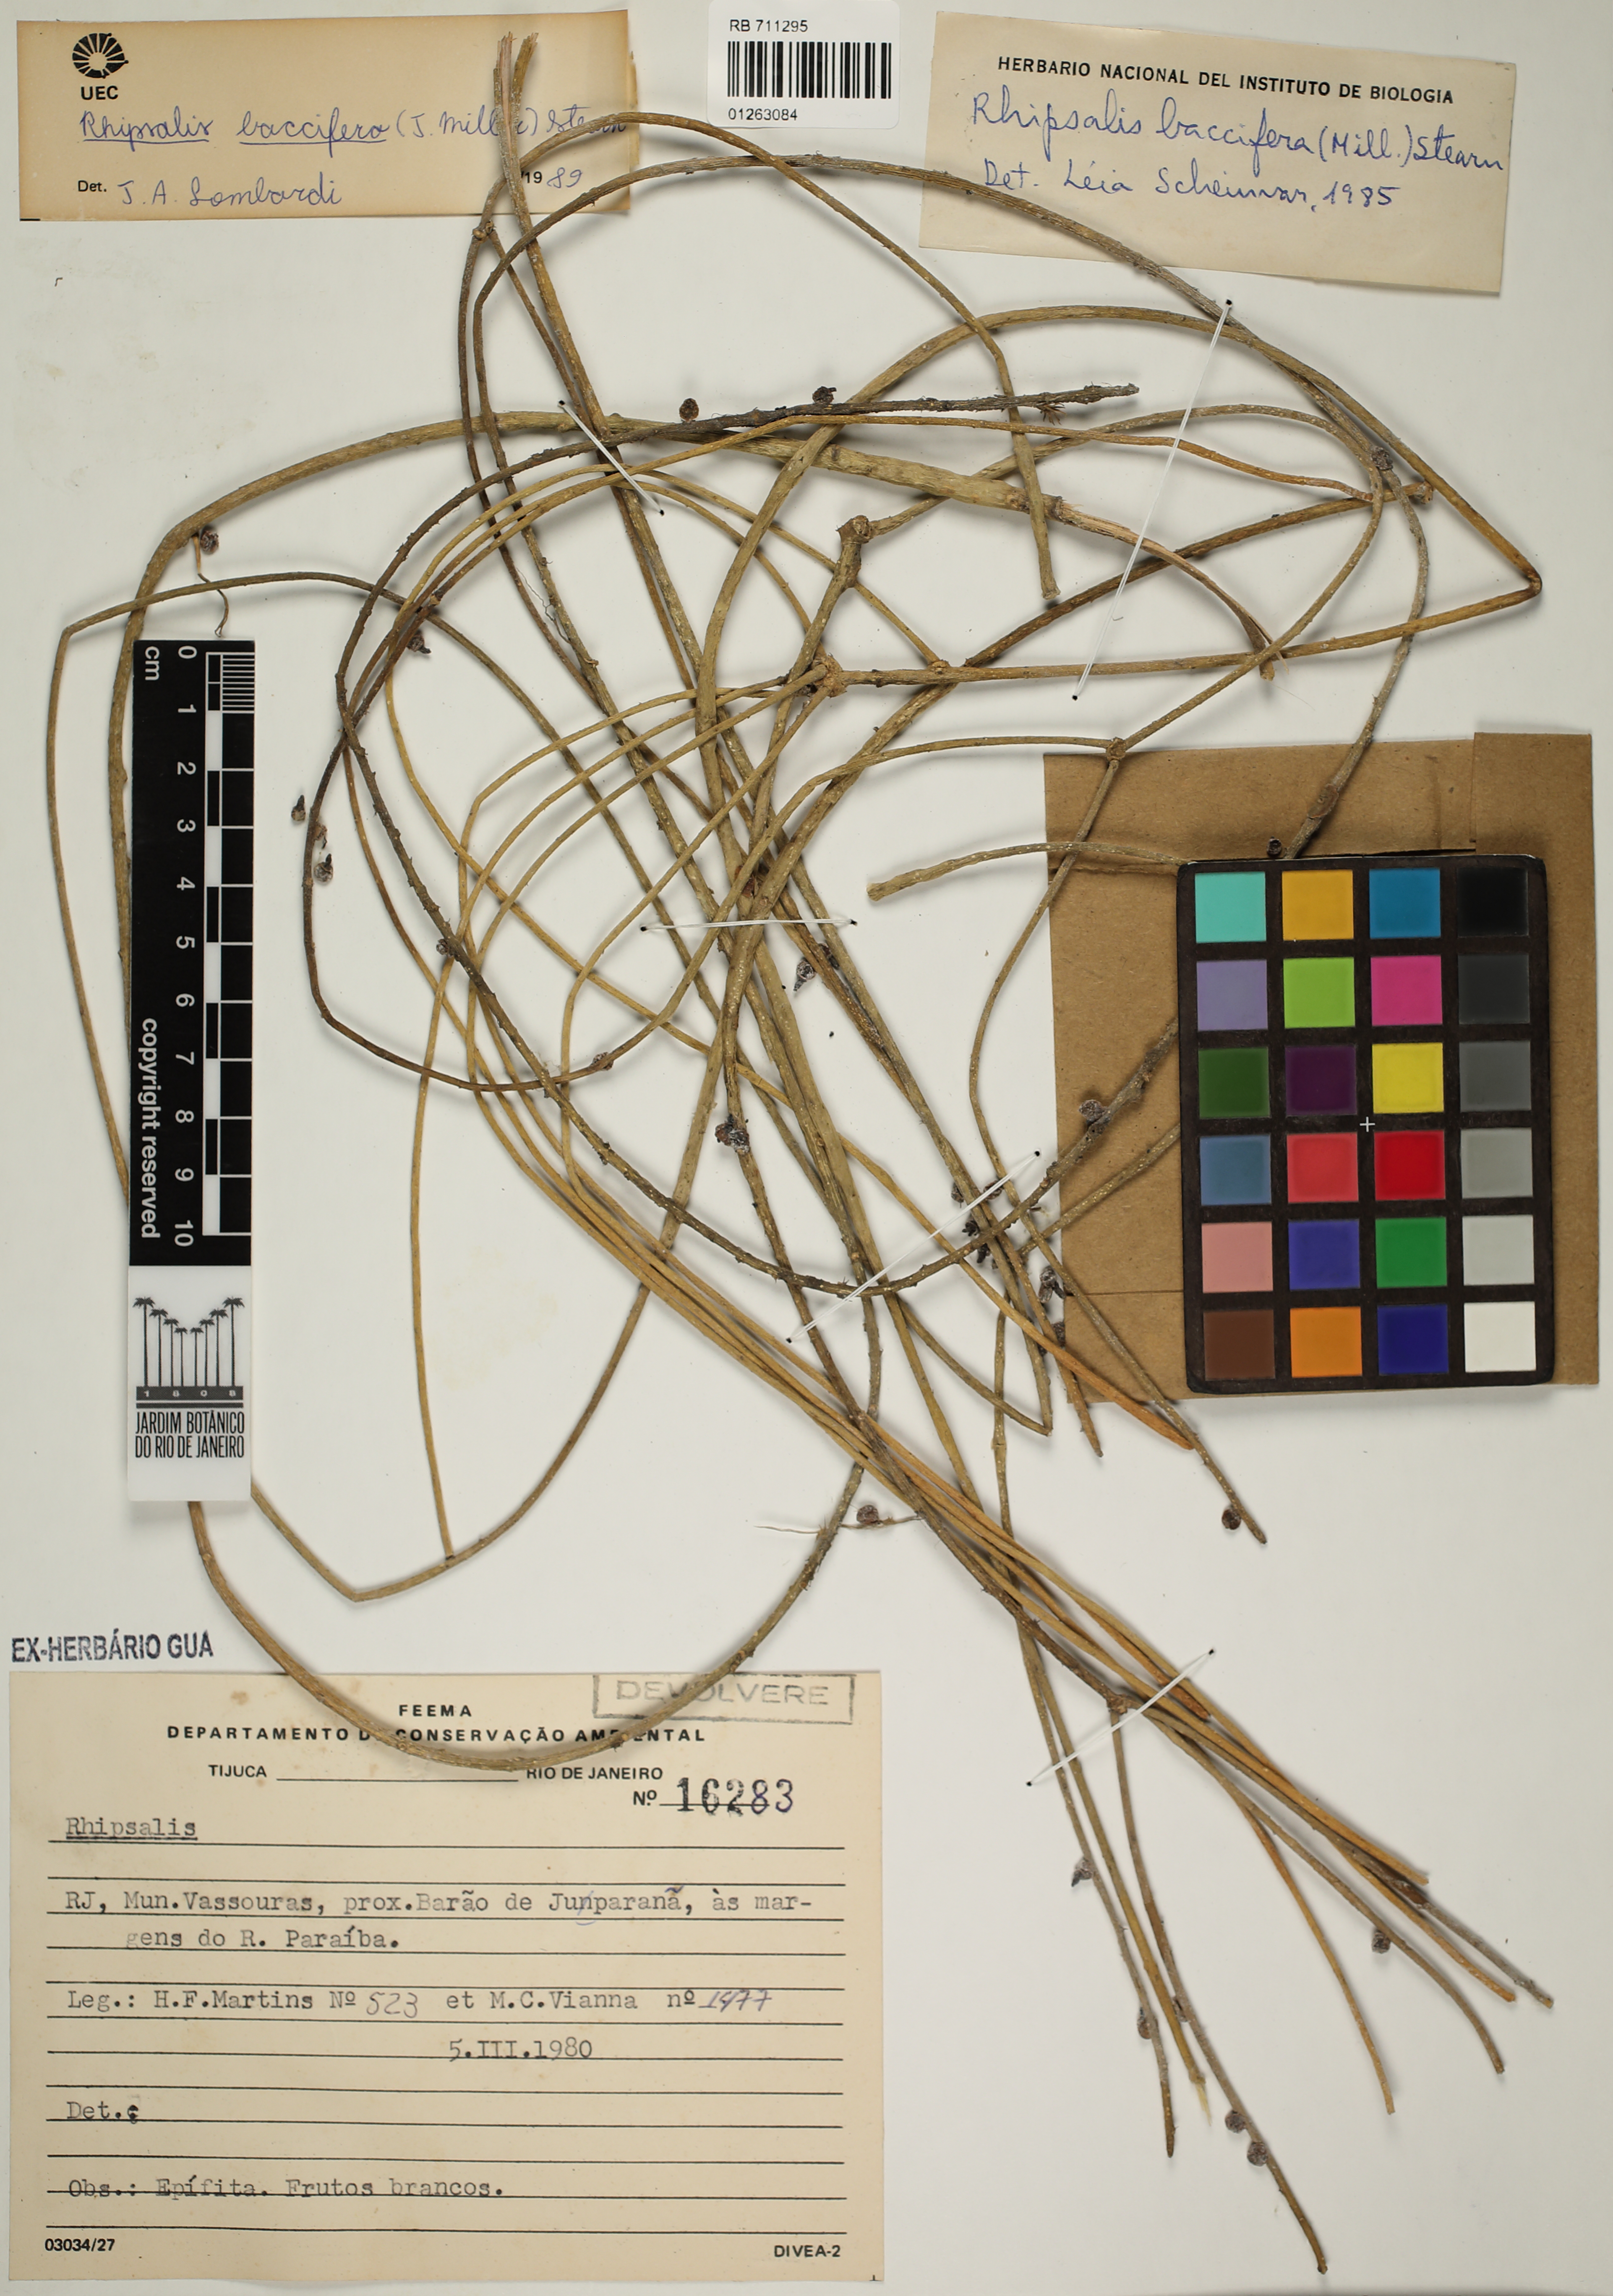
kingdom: Plantae
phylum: Tracheophyta
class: Magnoliopsida
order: Caryophyllales
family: Cactaceae
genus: Rhipsalis
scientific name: Rhipsalis baccifera
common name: Mistletoe cactus
